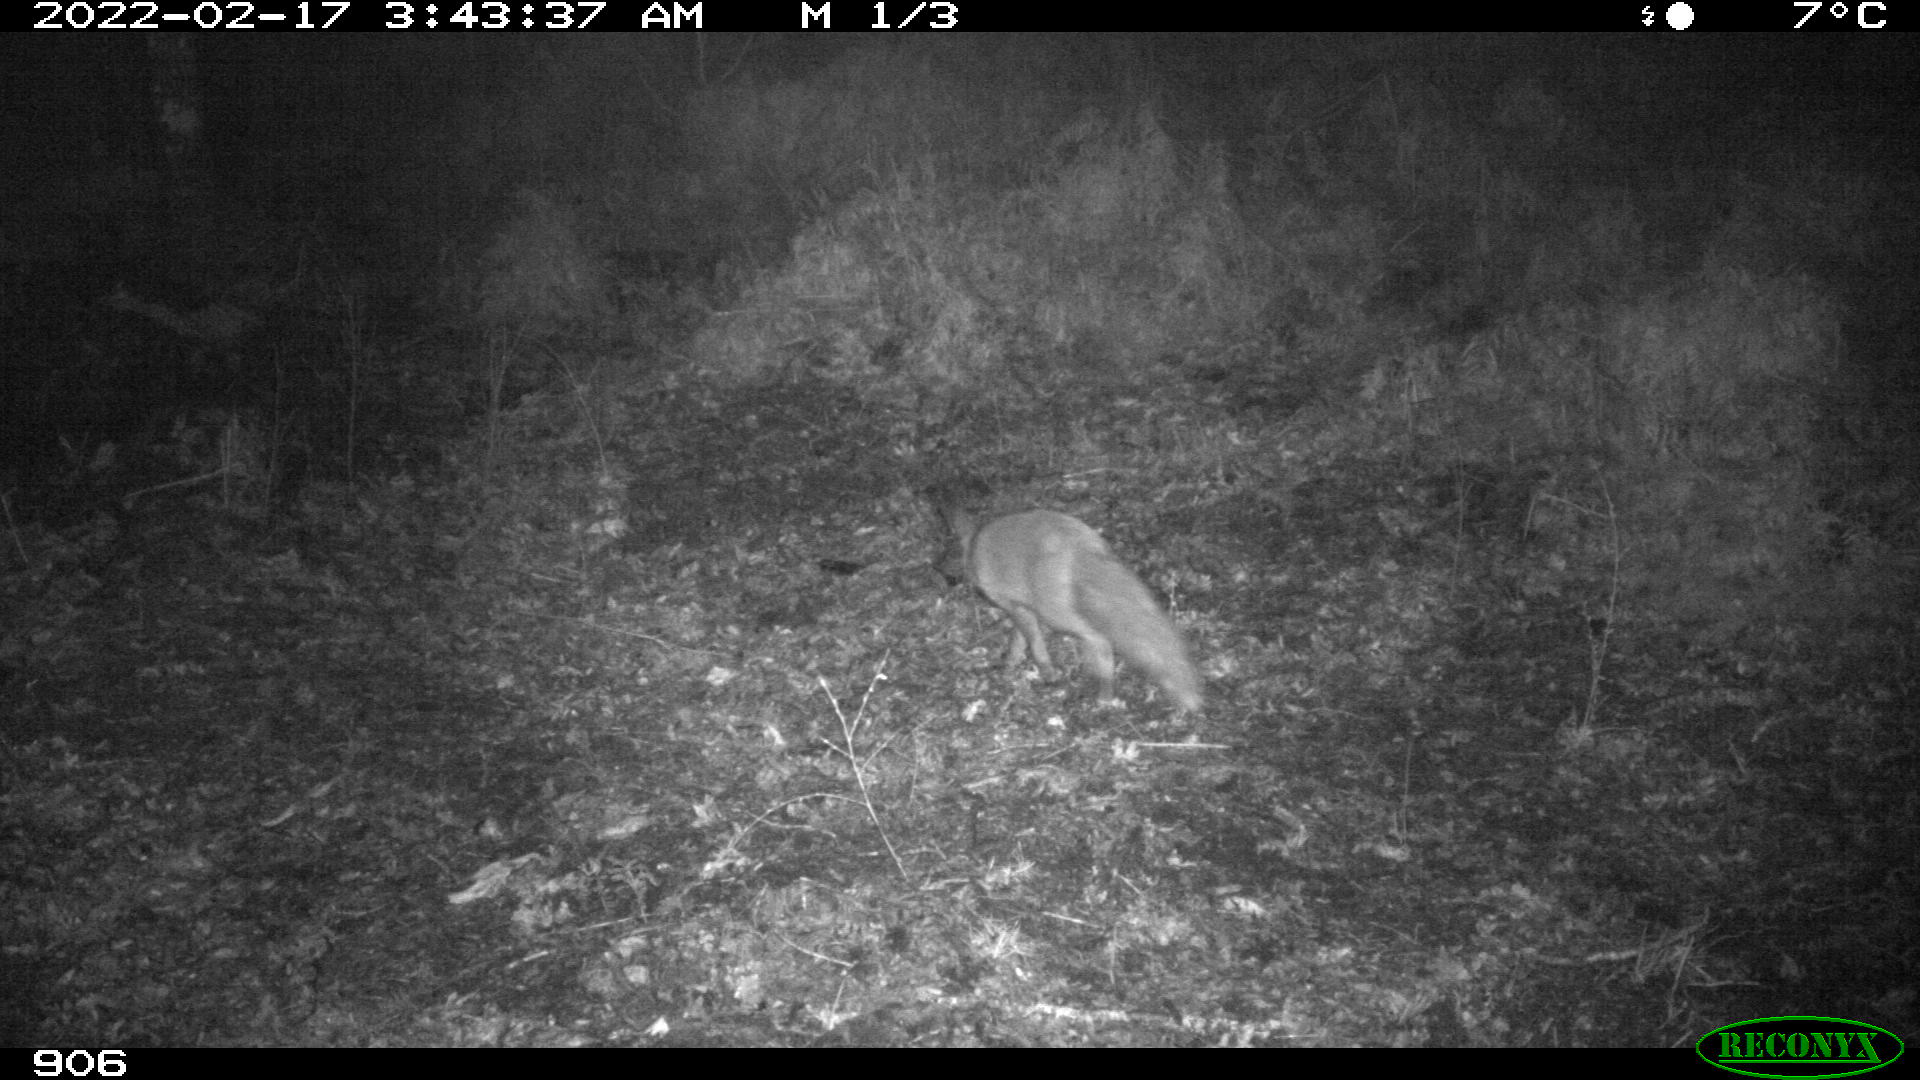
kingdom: Animalia
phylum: Chordata
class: Mammalia
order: Carnivora
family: Canidae
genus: Vulpes
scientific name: Vulpes vulpes
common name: Red fox
